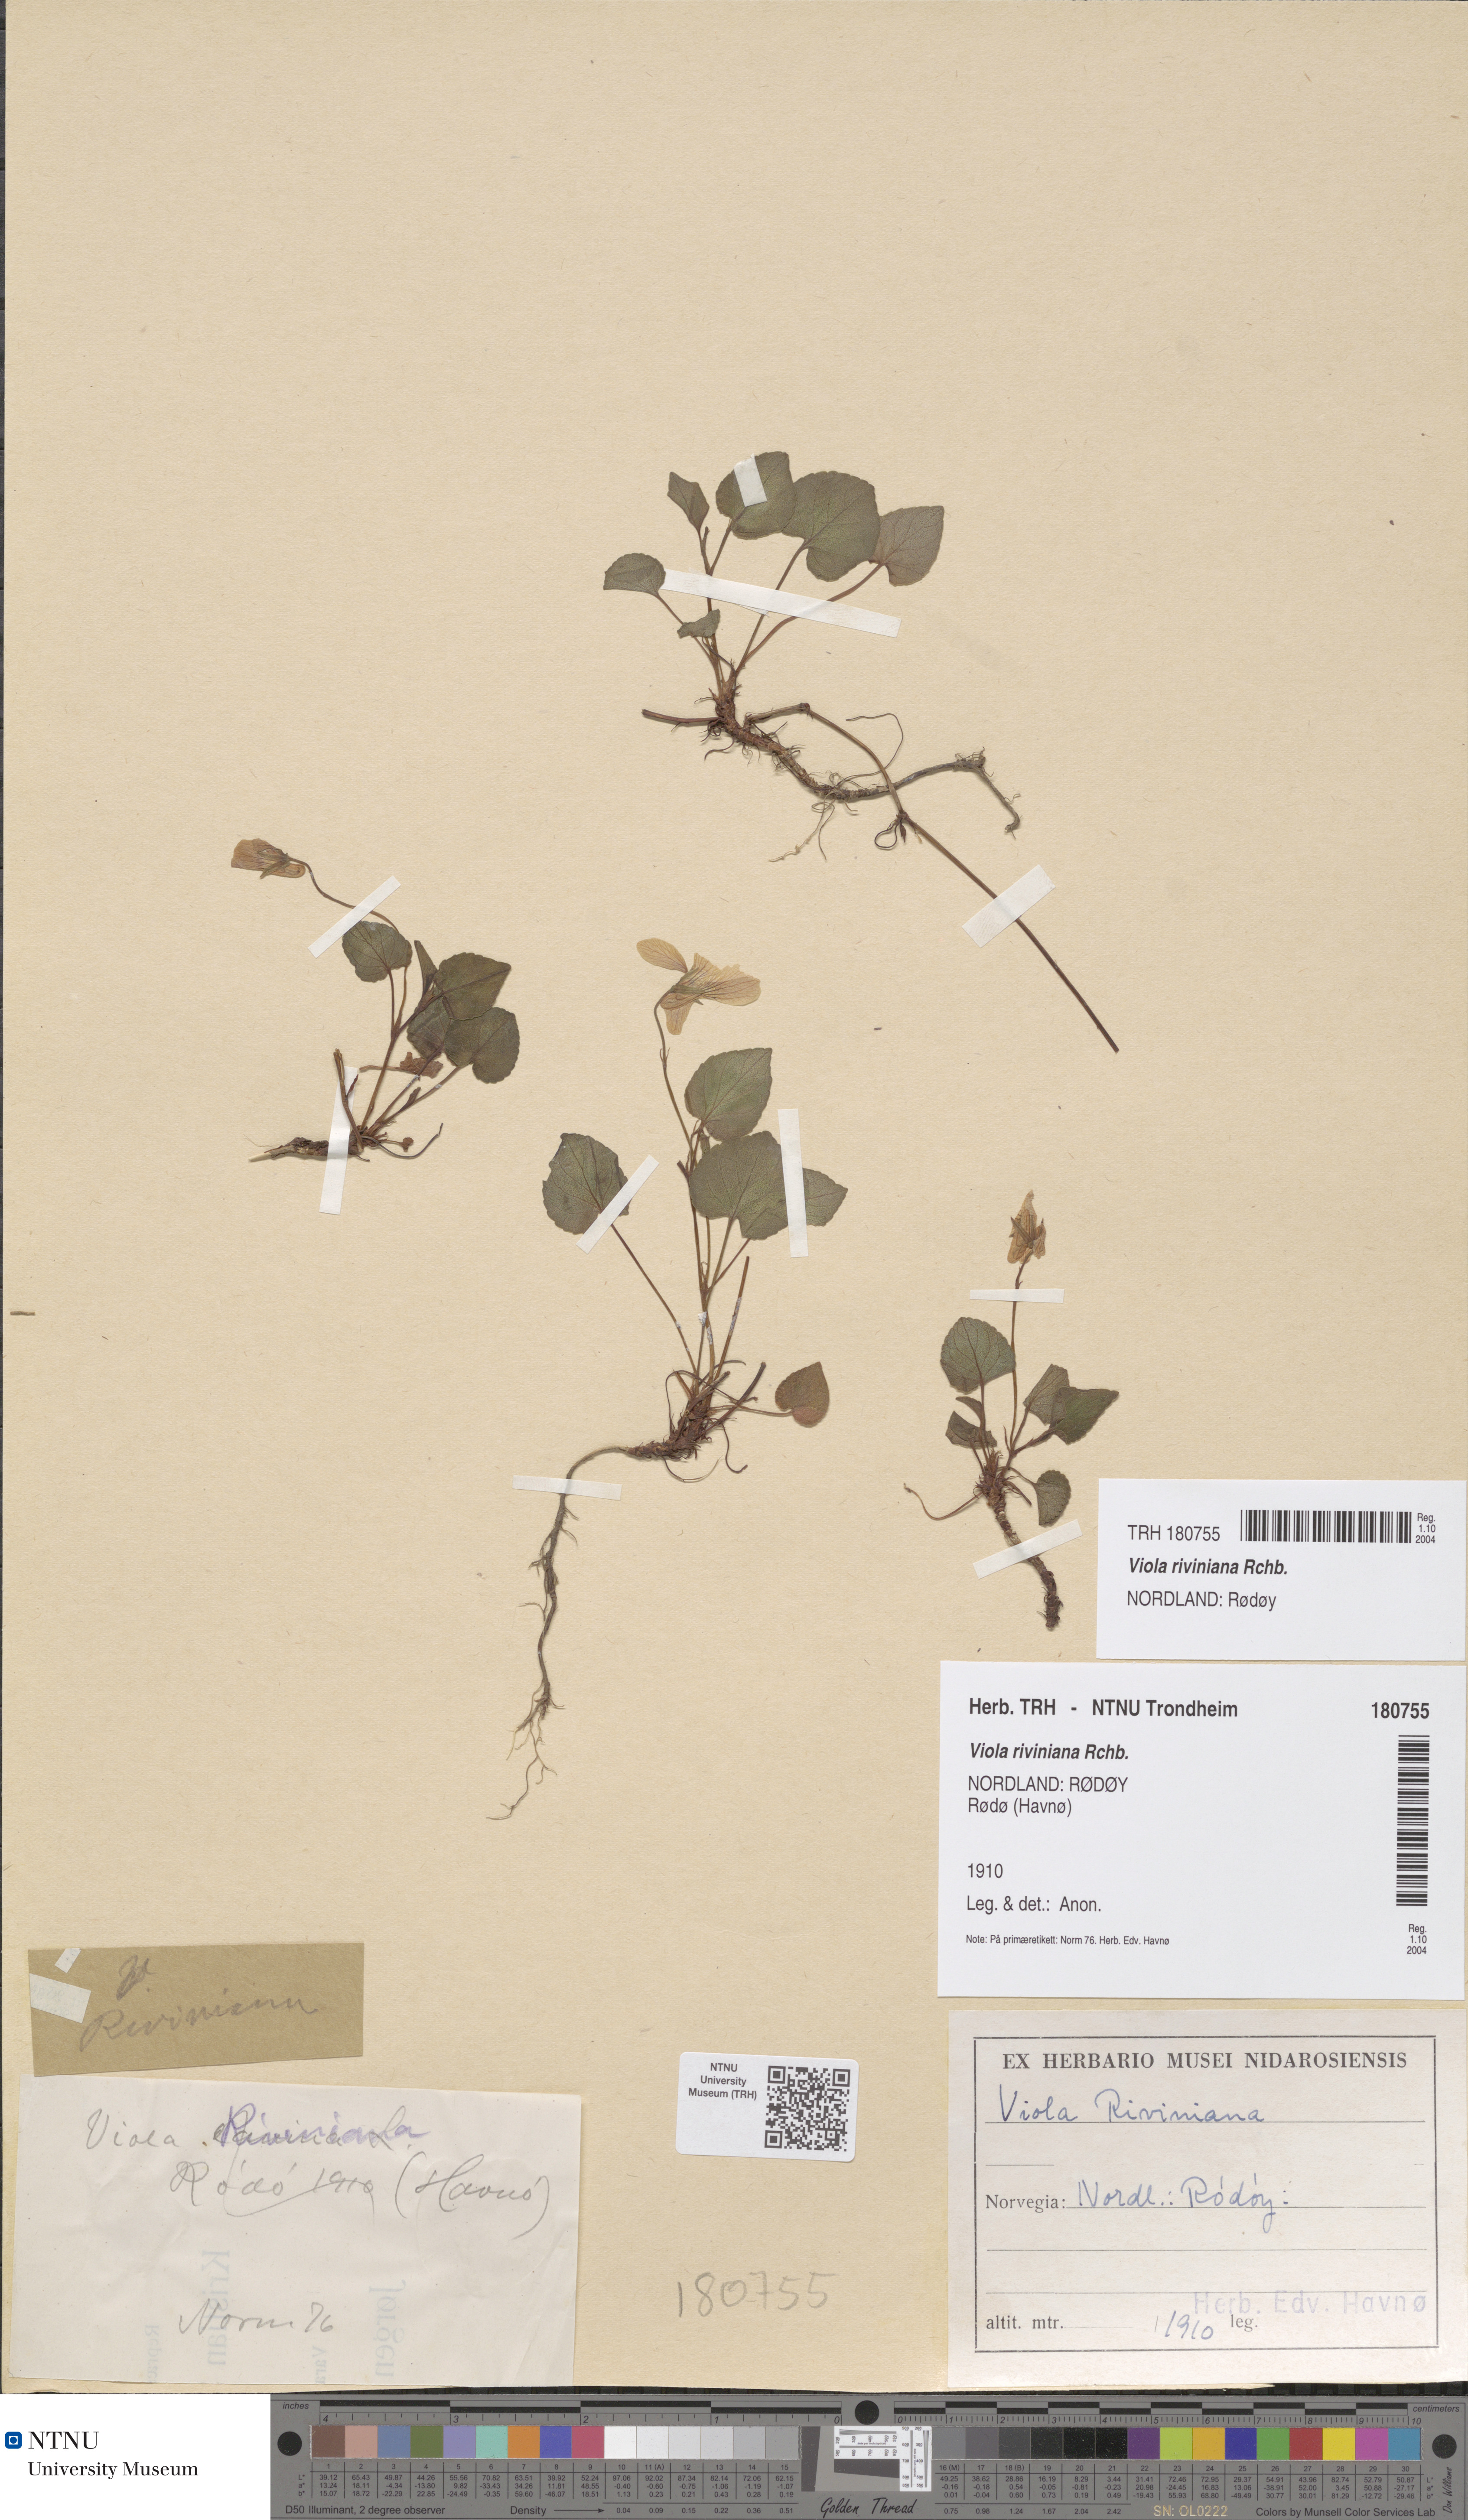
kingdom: Plantae
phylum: Tracheophyta
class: Magnoliopsida
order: Malpighiales
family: Violaceae
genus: Viola
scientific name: Viola riviniana
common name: Common dog-violet
